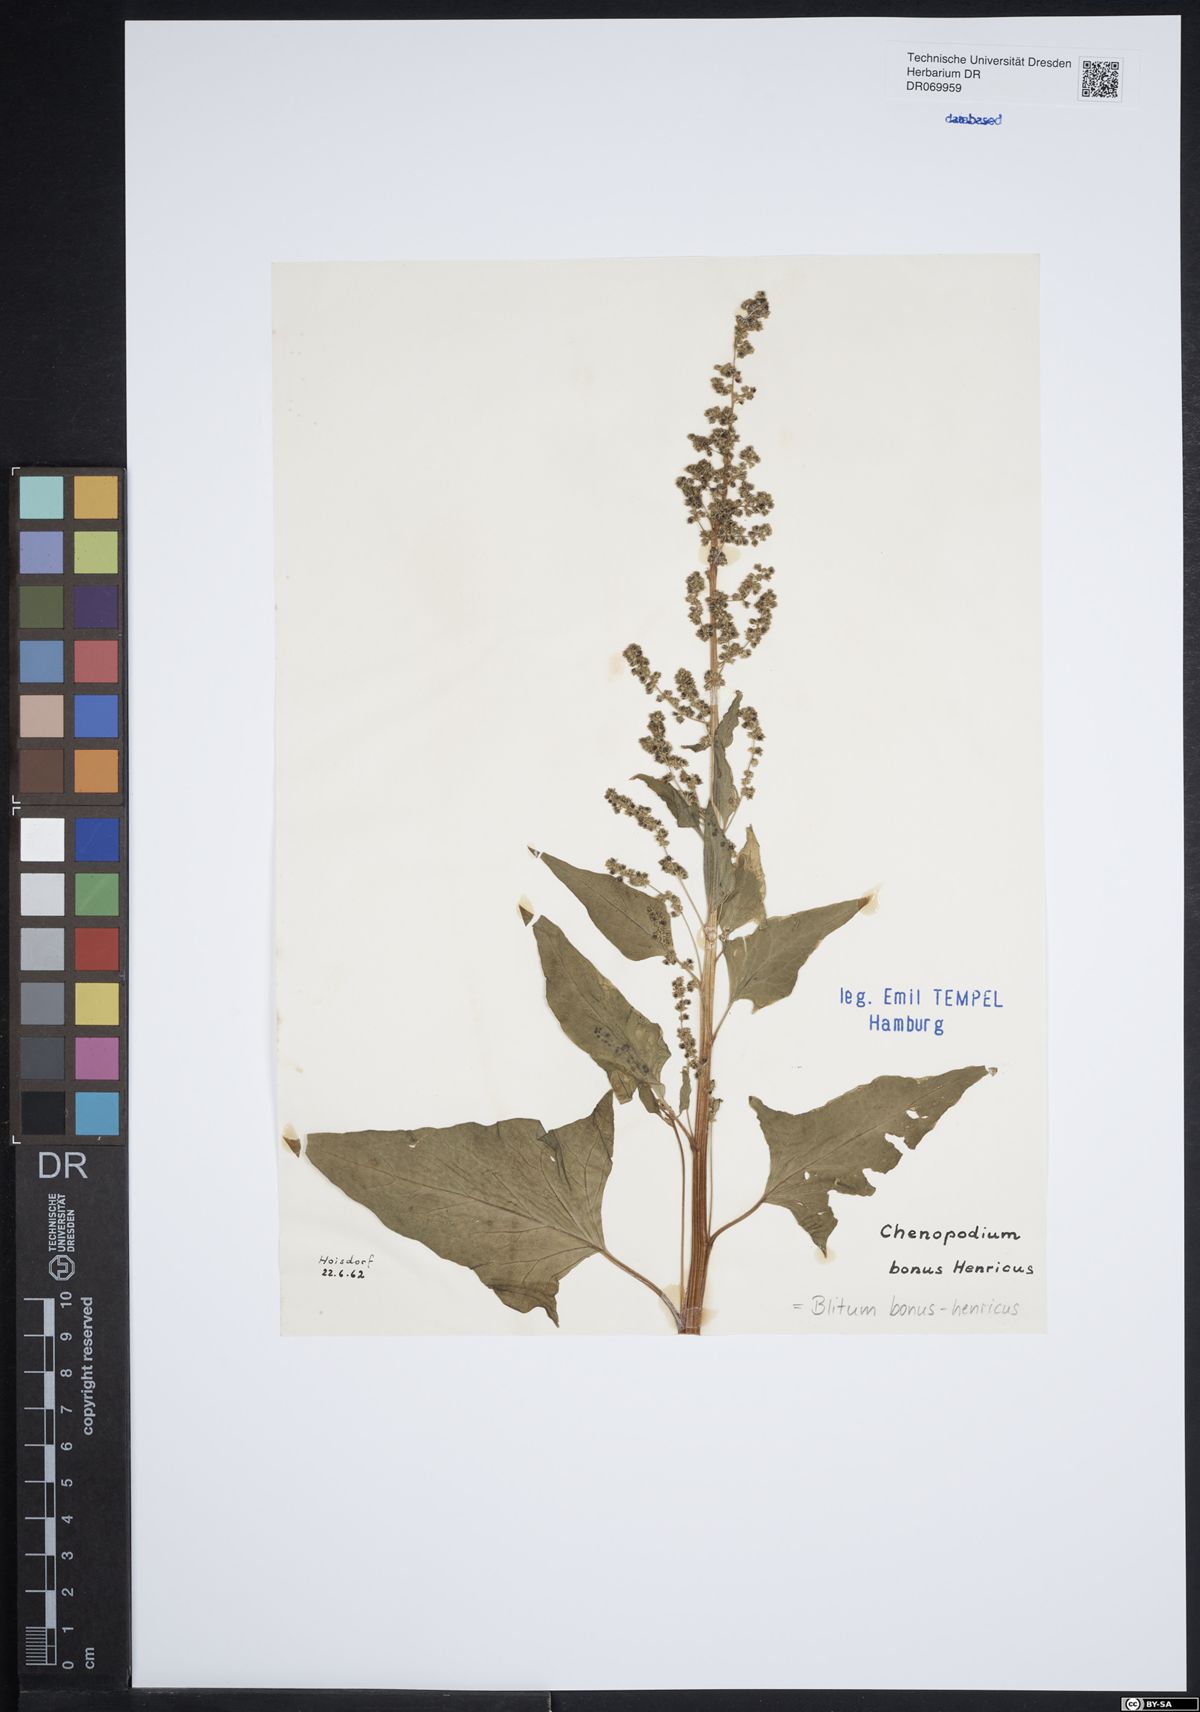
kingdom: Plantae
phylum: Tracheophyta
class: Magnoliopsida
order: Caryophyllales
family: Amaranthaceae
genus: Blitum
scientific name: Blitum bonus-henricus
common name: Good king henry
